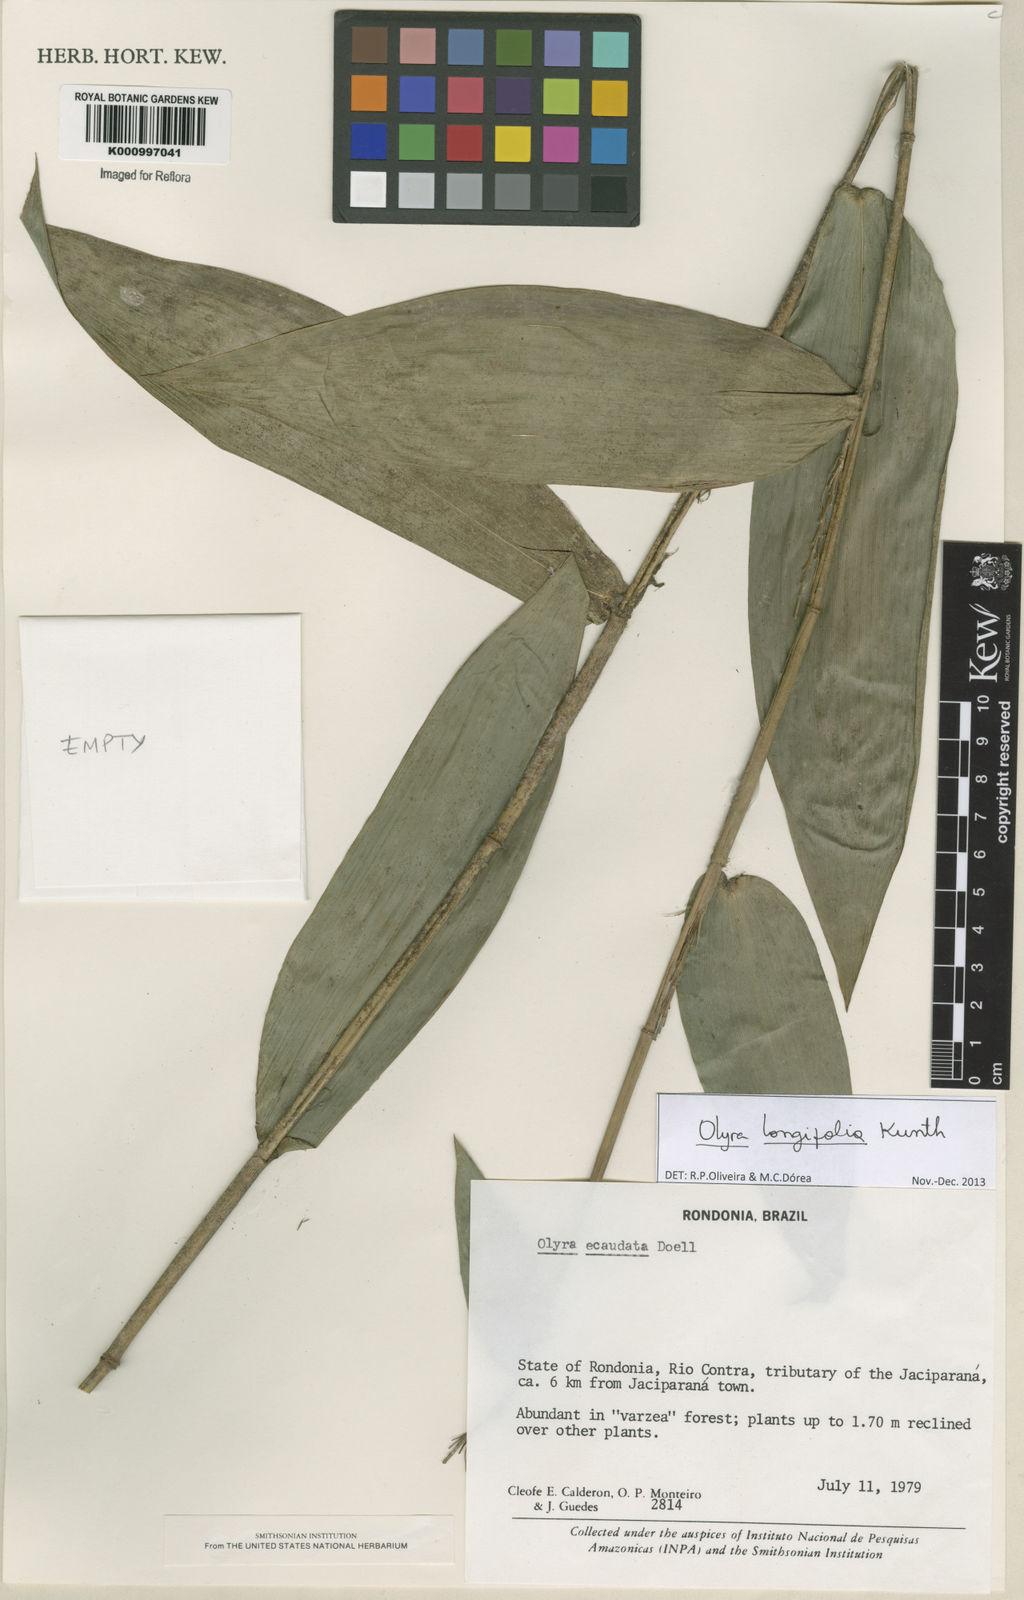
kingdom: Plantae
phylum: Tracheophyta
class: Liliopsida
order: Poales
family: Poaceae
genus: Olyra
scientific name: Olyra longifolia
